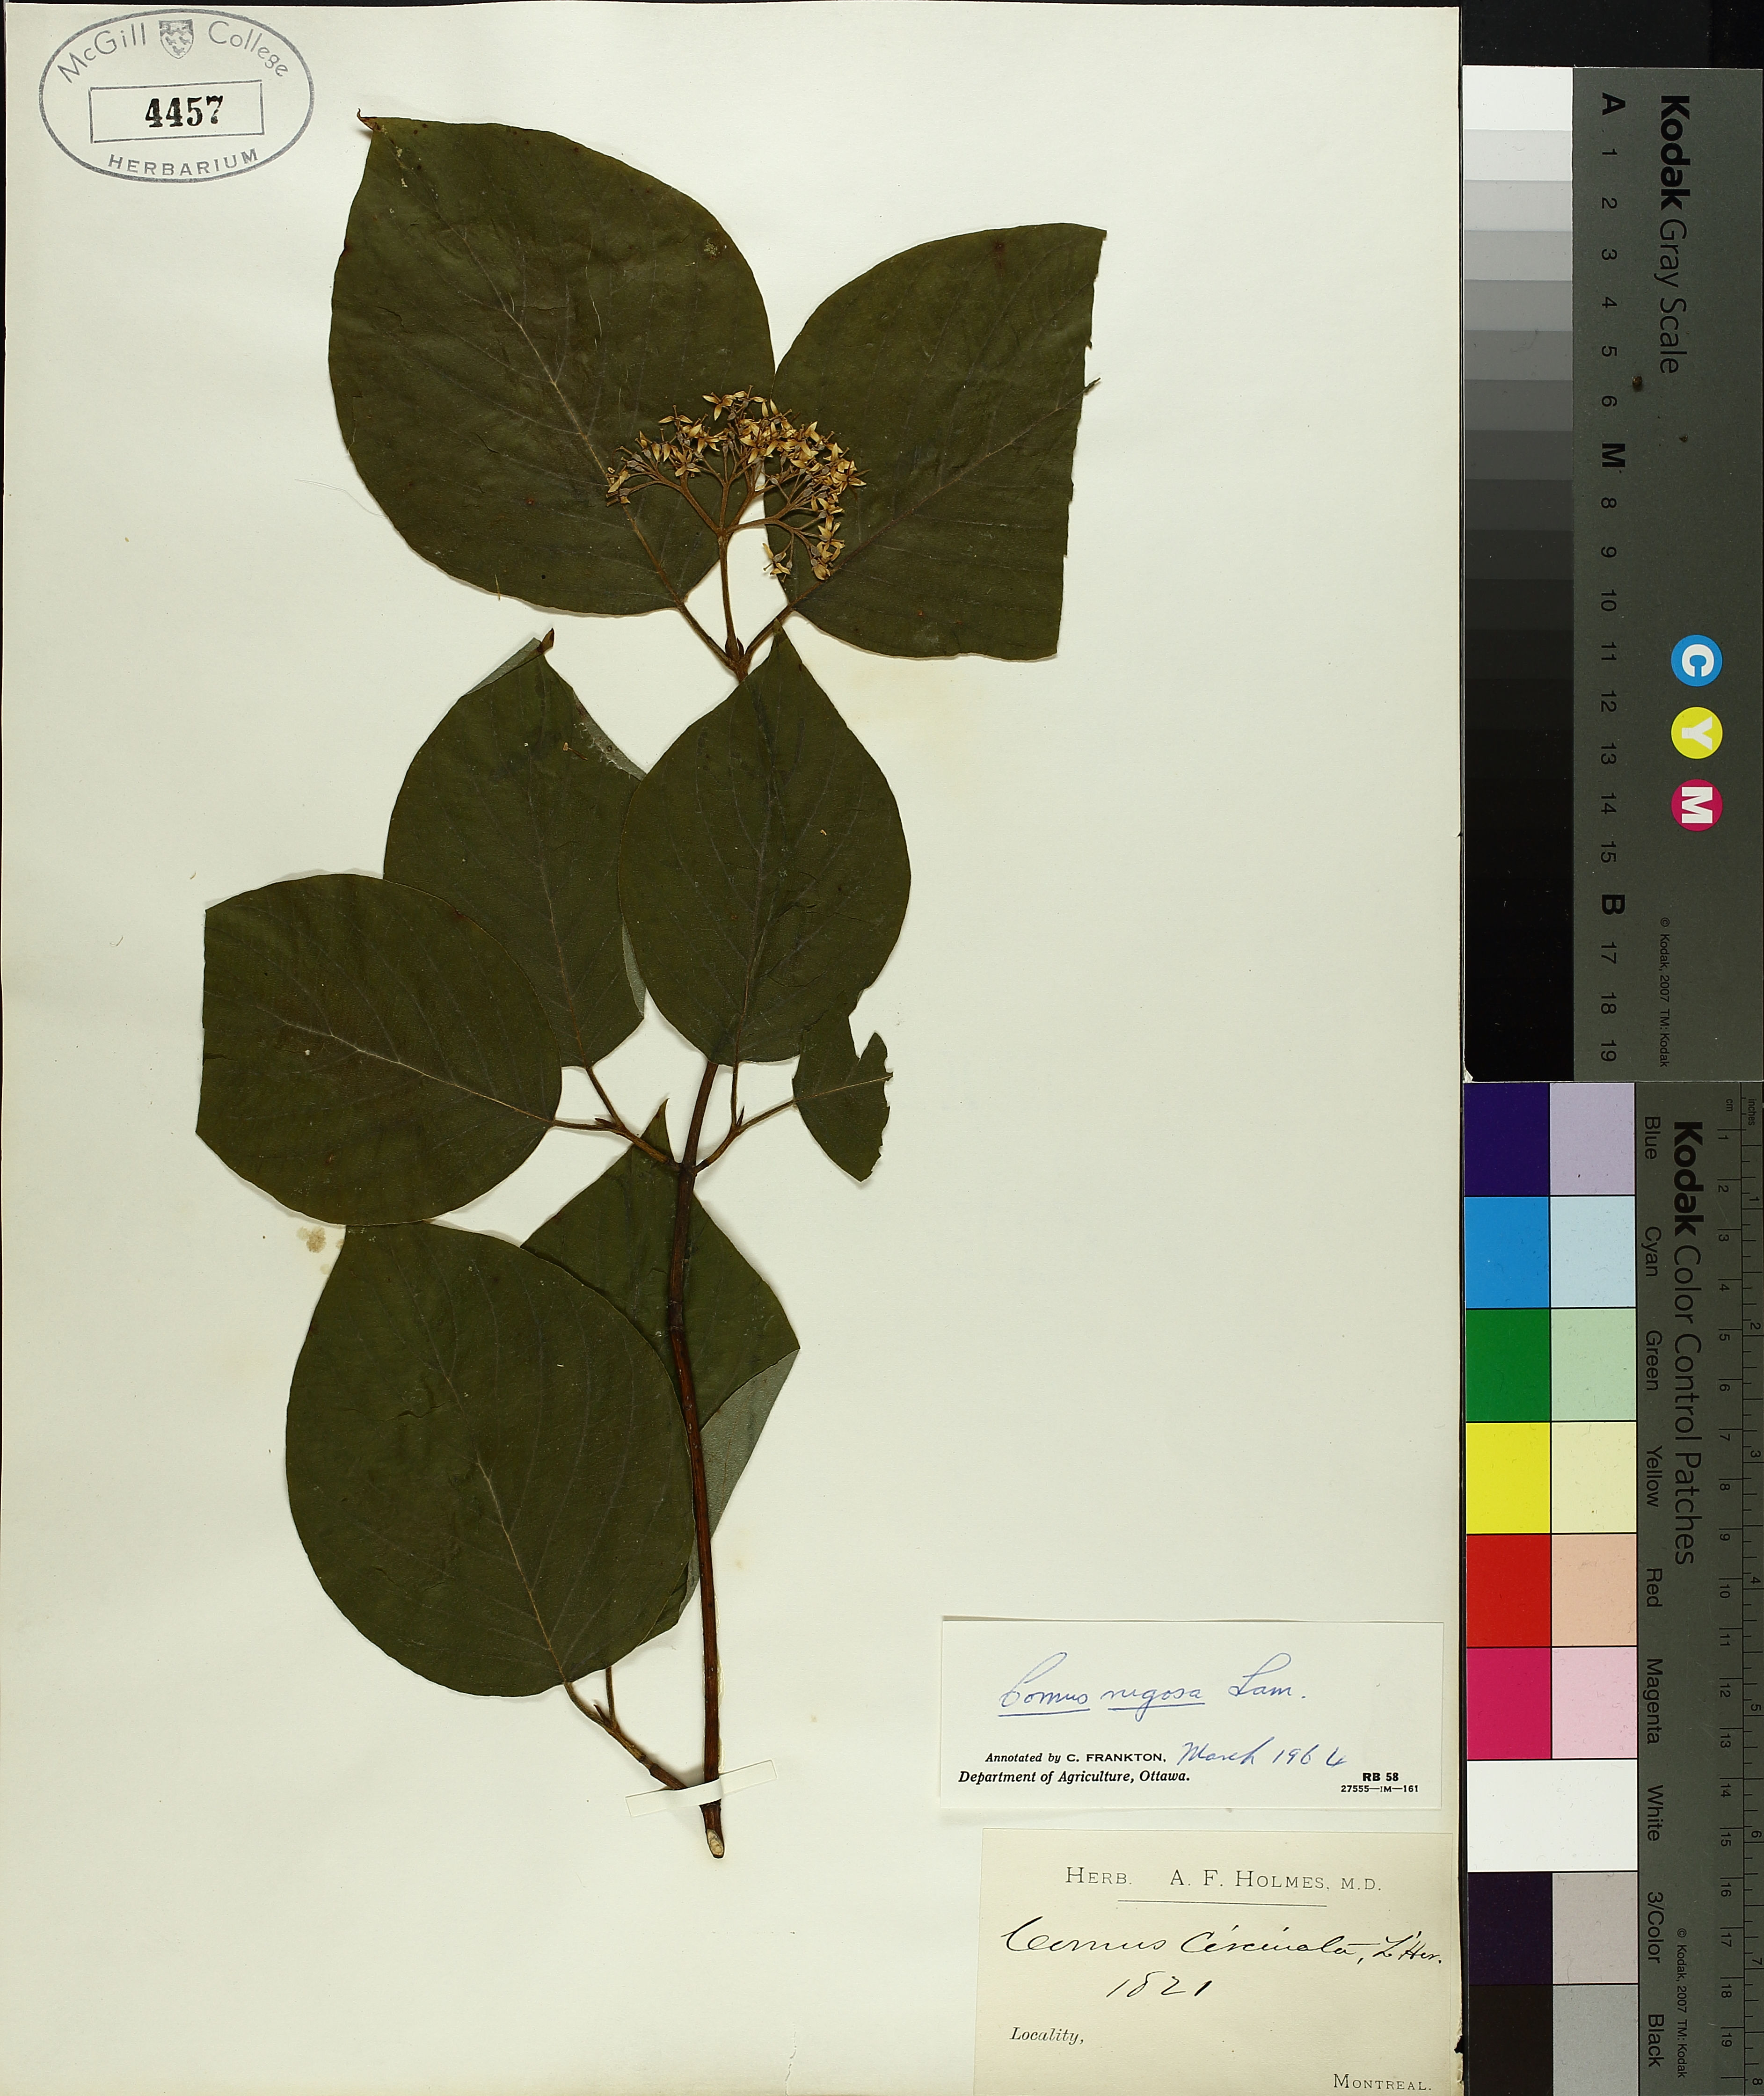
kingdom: Plantae
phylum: Tracheophyta
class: Magnoliopsida
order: Cornales
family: Cornaceae
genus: Cornus
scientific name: Cornus rugosa
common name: Round-leaf dogwood
